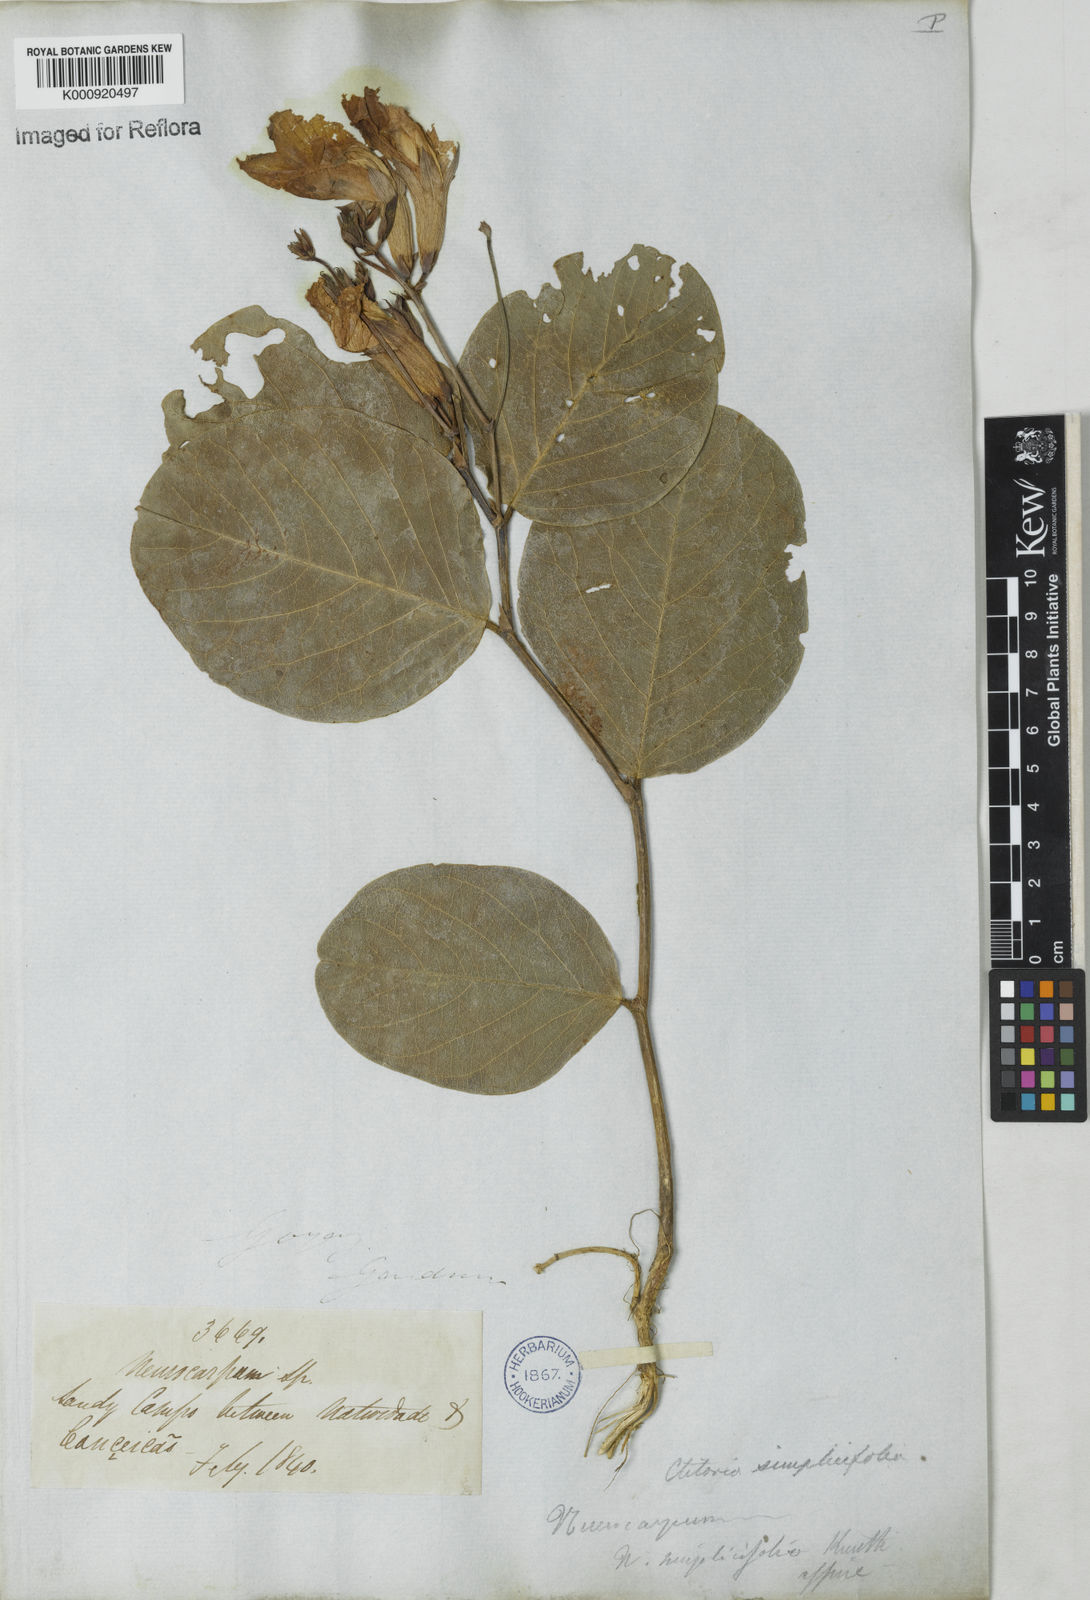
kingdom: Plantae
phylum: Tracheophyta
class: Magnoliopsida
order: Fabales
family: Fabaceae
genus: Clitoria
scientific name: Clitoria simplicifolia
